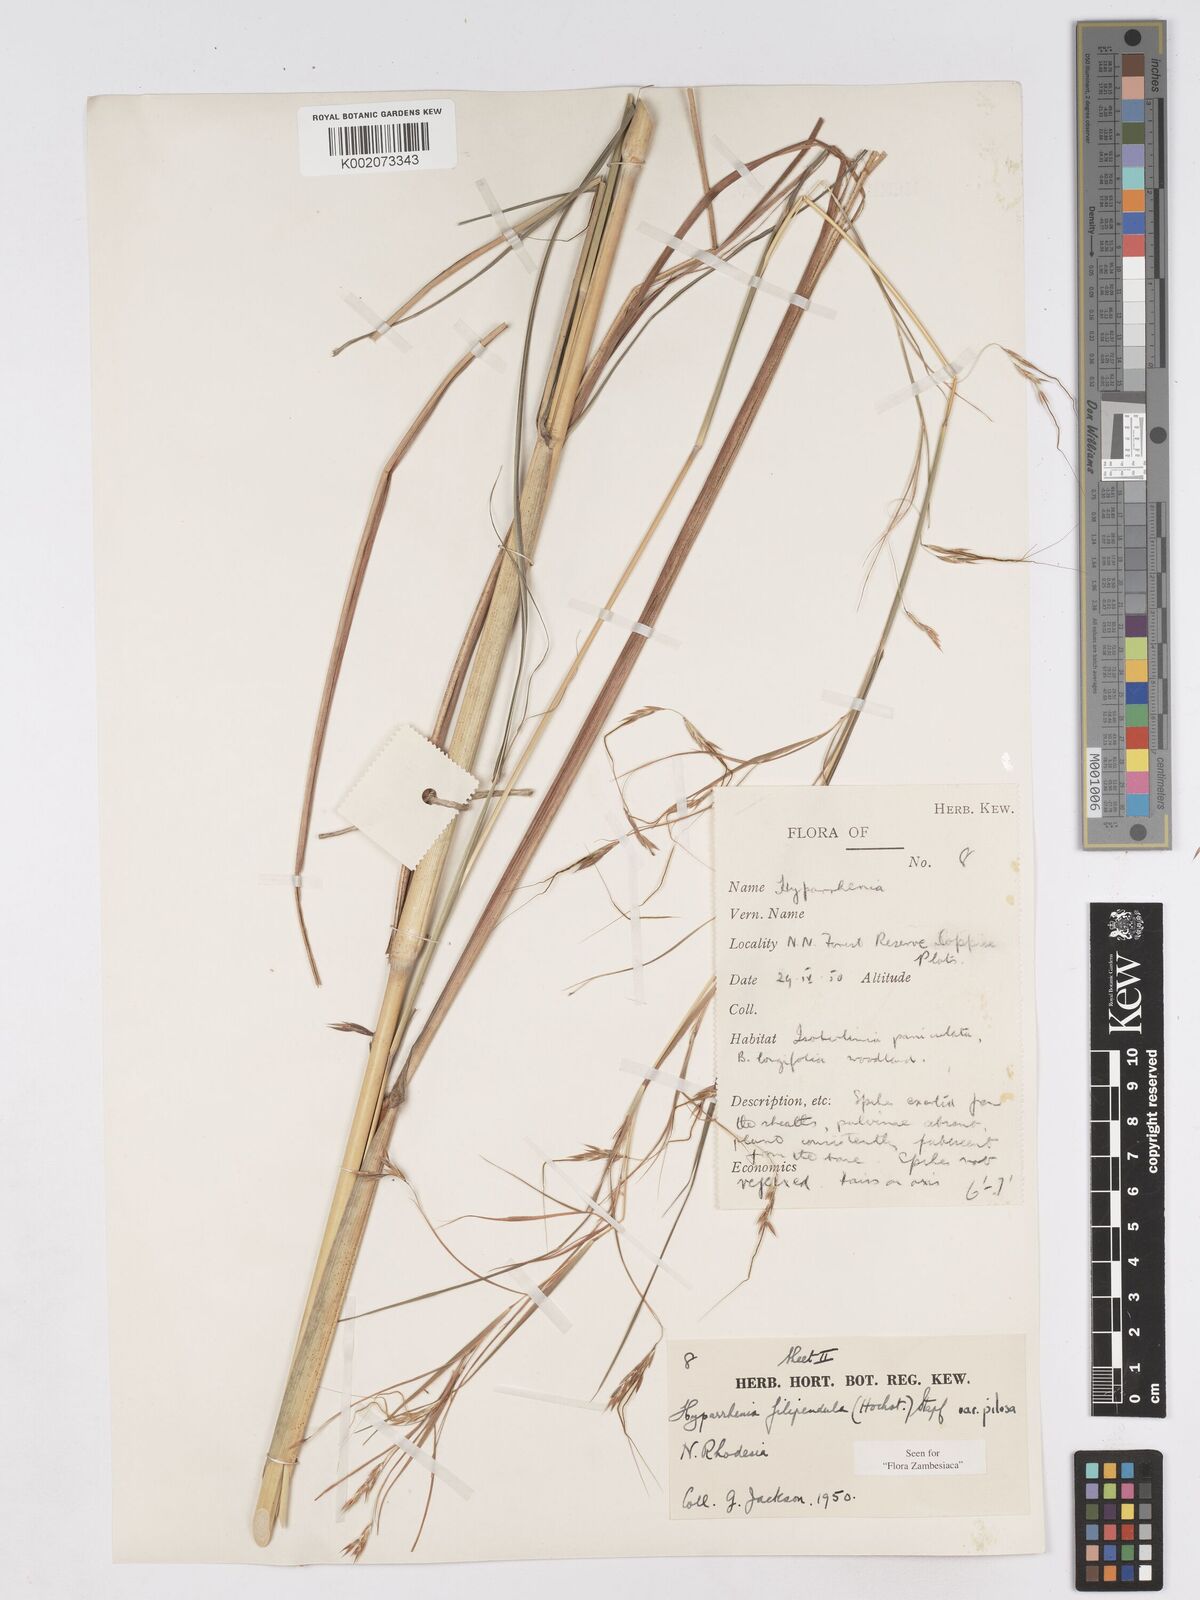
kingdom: Plantae
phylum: Tracheophyta
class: Liliopsida
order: Poales
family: Poaceae
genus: Hyparrhenia
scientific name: Hyparrhenia filipendula
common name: Tambookie grass
